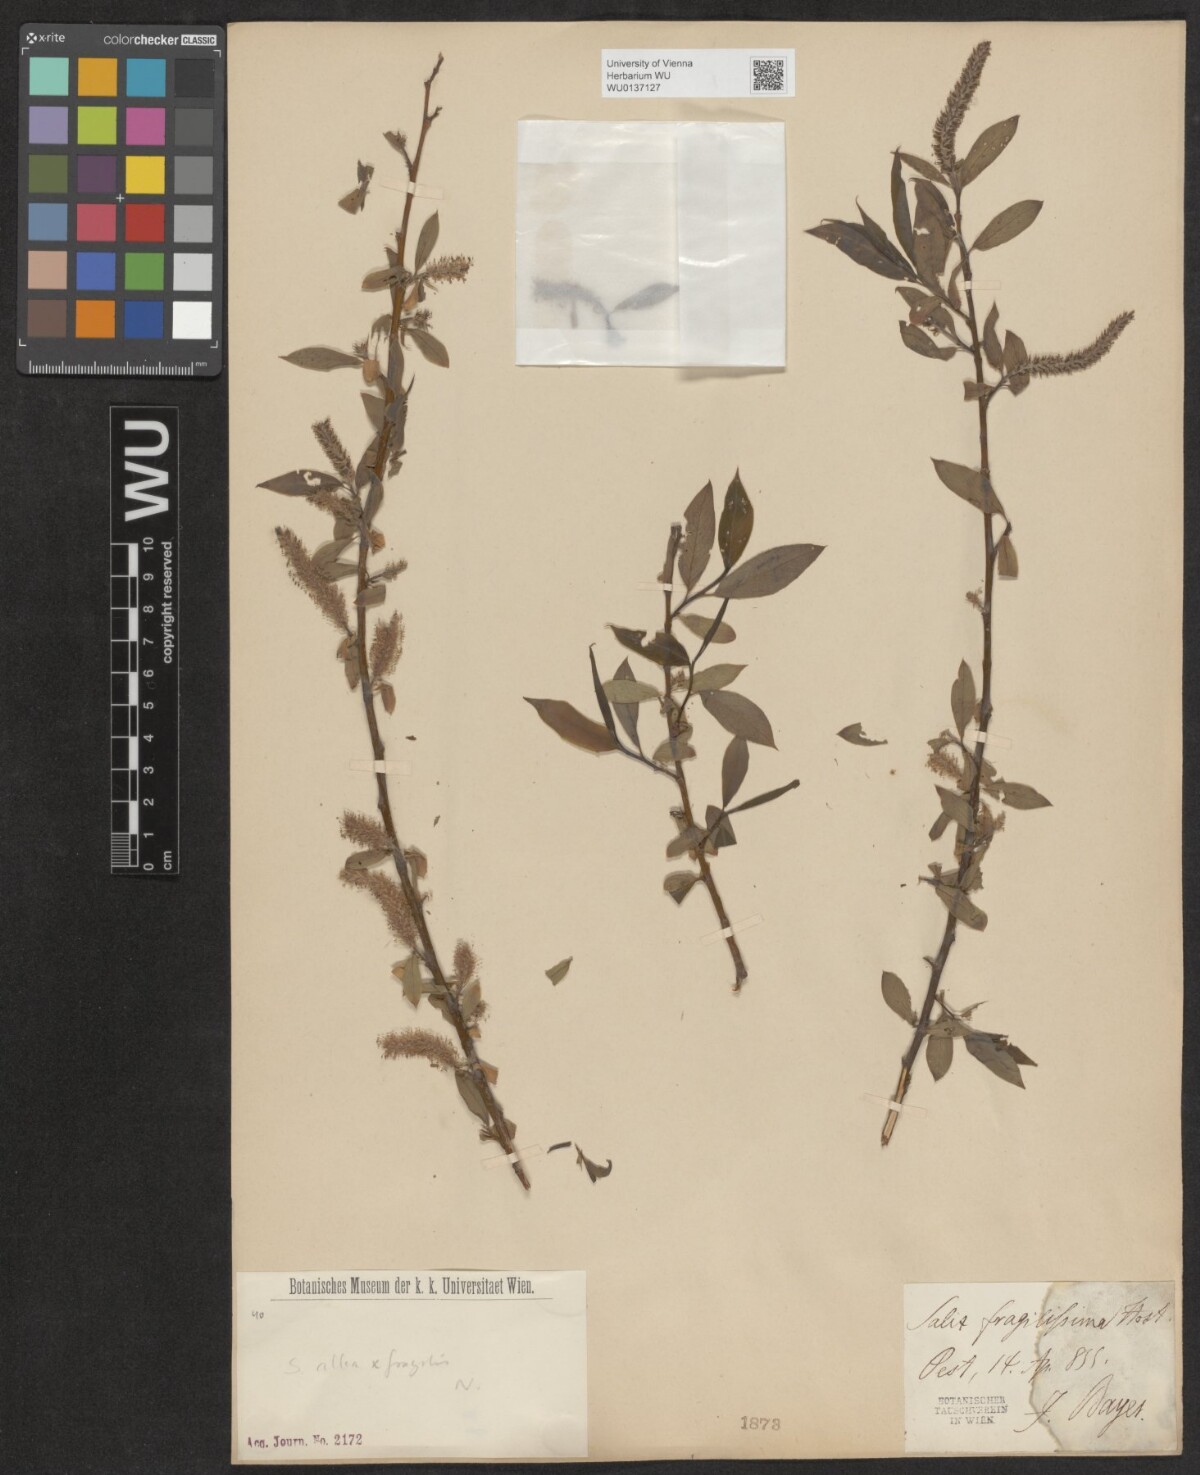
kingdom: Plantae
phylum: Tracheophyta
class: Magnoliopsida
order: Malpighiales
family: Salicaceae
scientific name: Salicaceae
